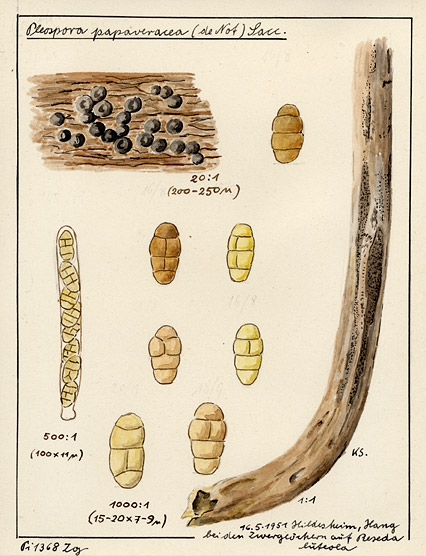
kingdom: Fungi
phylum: Ascomycota
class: Dothideomycetes
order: Pleosporales
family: Pleosporaceae
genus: Alternaria
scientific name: Alternaria penicillata
